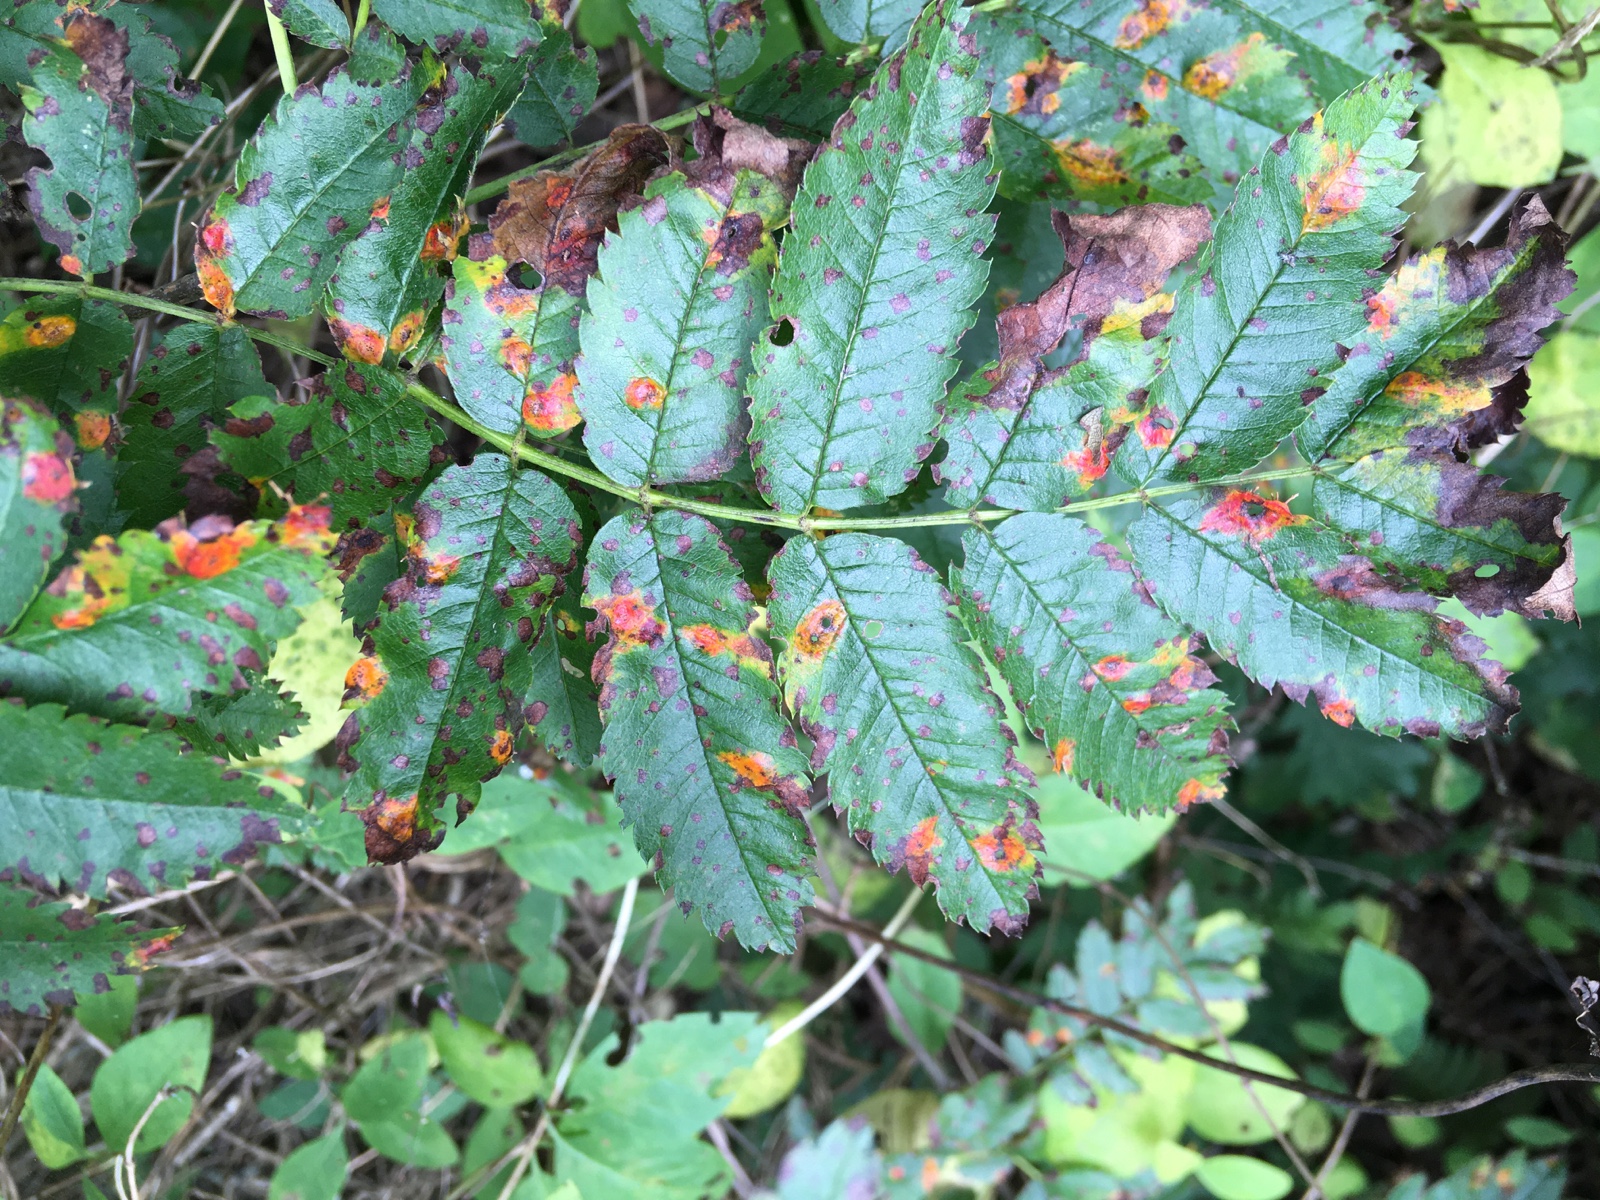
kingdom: Fungi
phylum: Basidiomycota
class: Pucciniomycetes
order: Pucciniales
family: Gymnosporangiaceae
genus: Gymnosporangium
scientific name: Gymnosporangium cornutum
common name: rønnehorn-bævrerust
